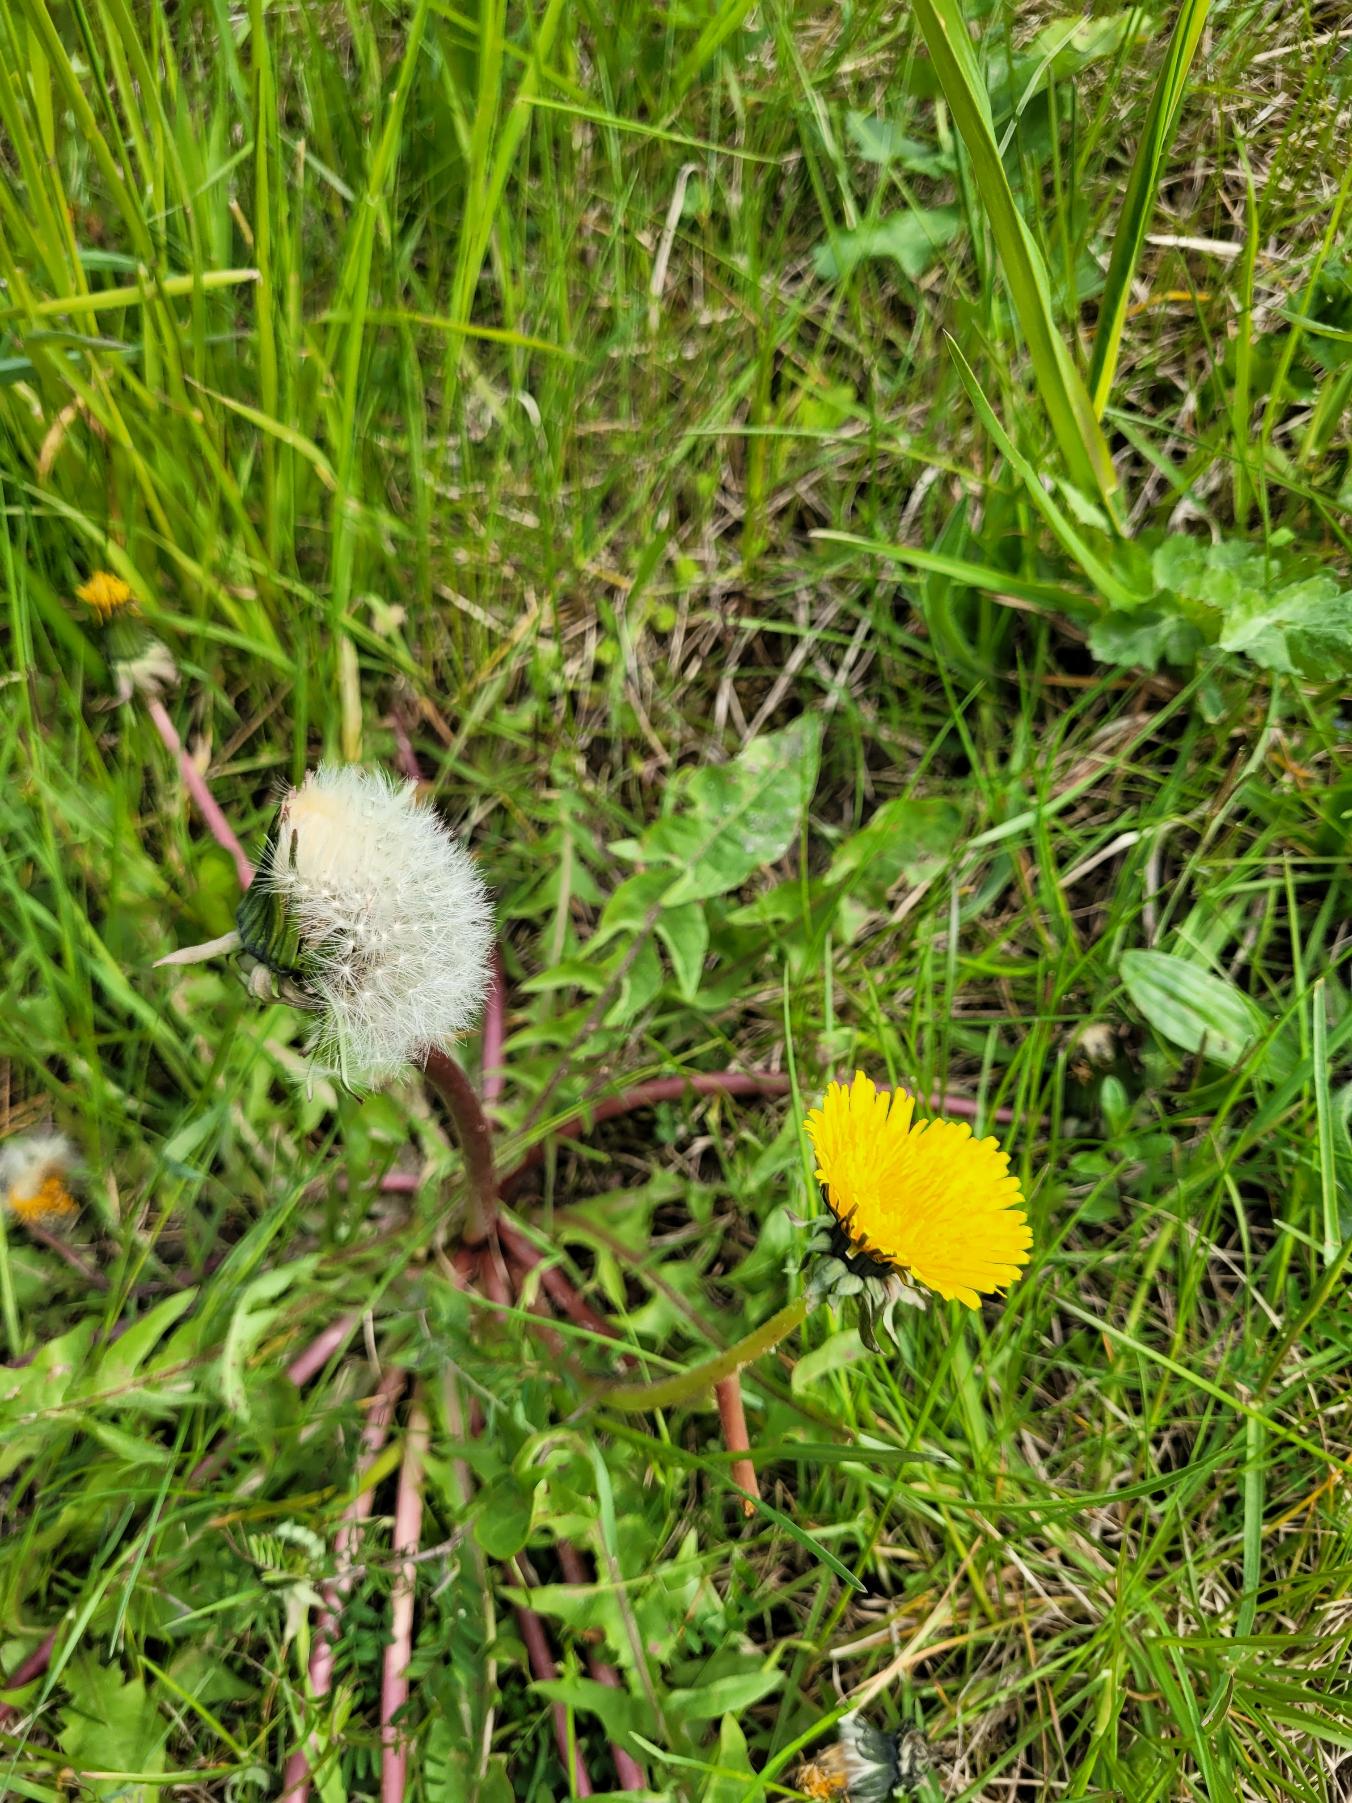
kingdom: Plantae
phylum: Tracheophyta
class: Magnoliopsida
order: Asterales
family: Asteraceae
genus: Taraxacum
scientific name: Taraxacum
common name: Mælkebøtteslægten
